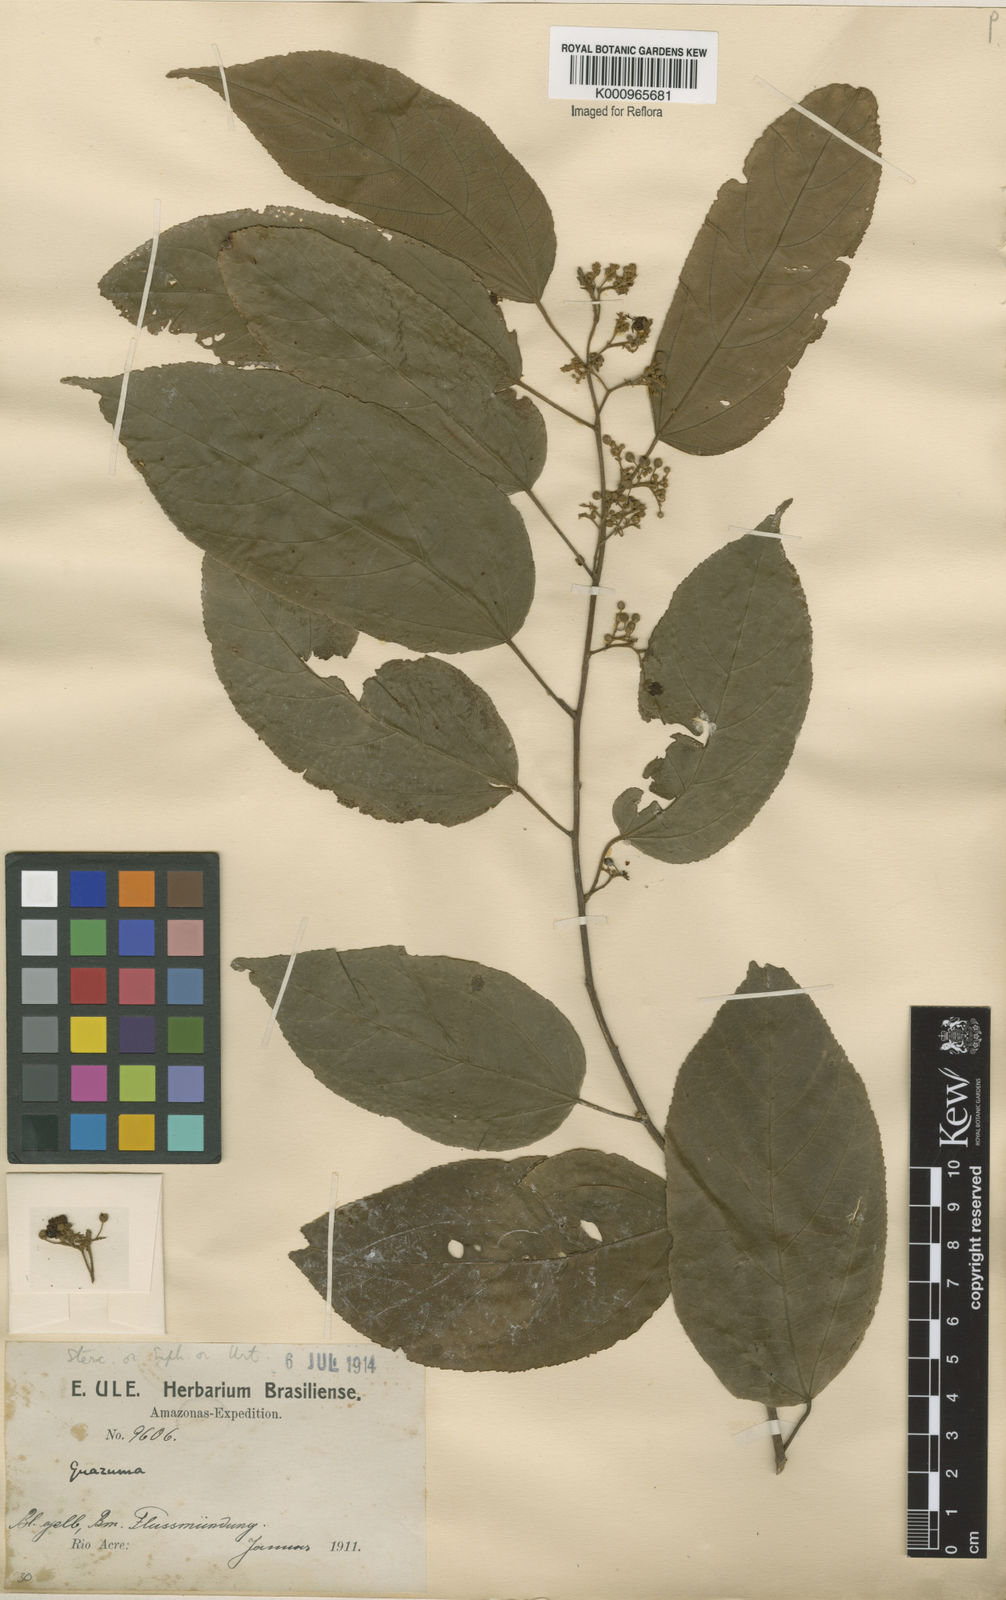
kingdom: Plantae
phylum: Tracheophyta
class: Magnoliopsida
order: Malvales
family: Malvaceae
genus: Guazuma
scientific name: Guazuma ulmifolia
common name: Bastard-cedar
